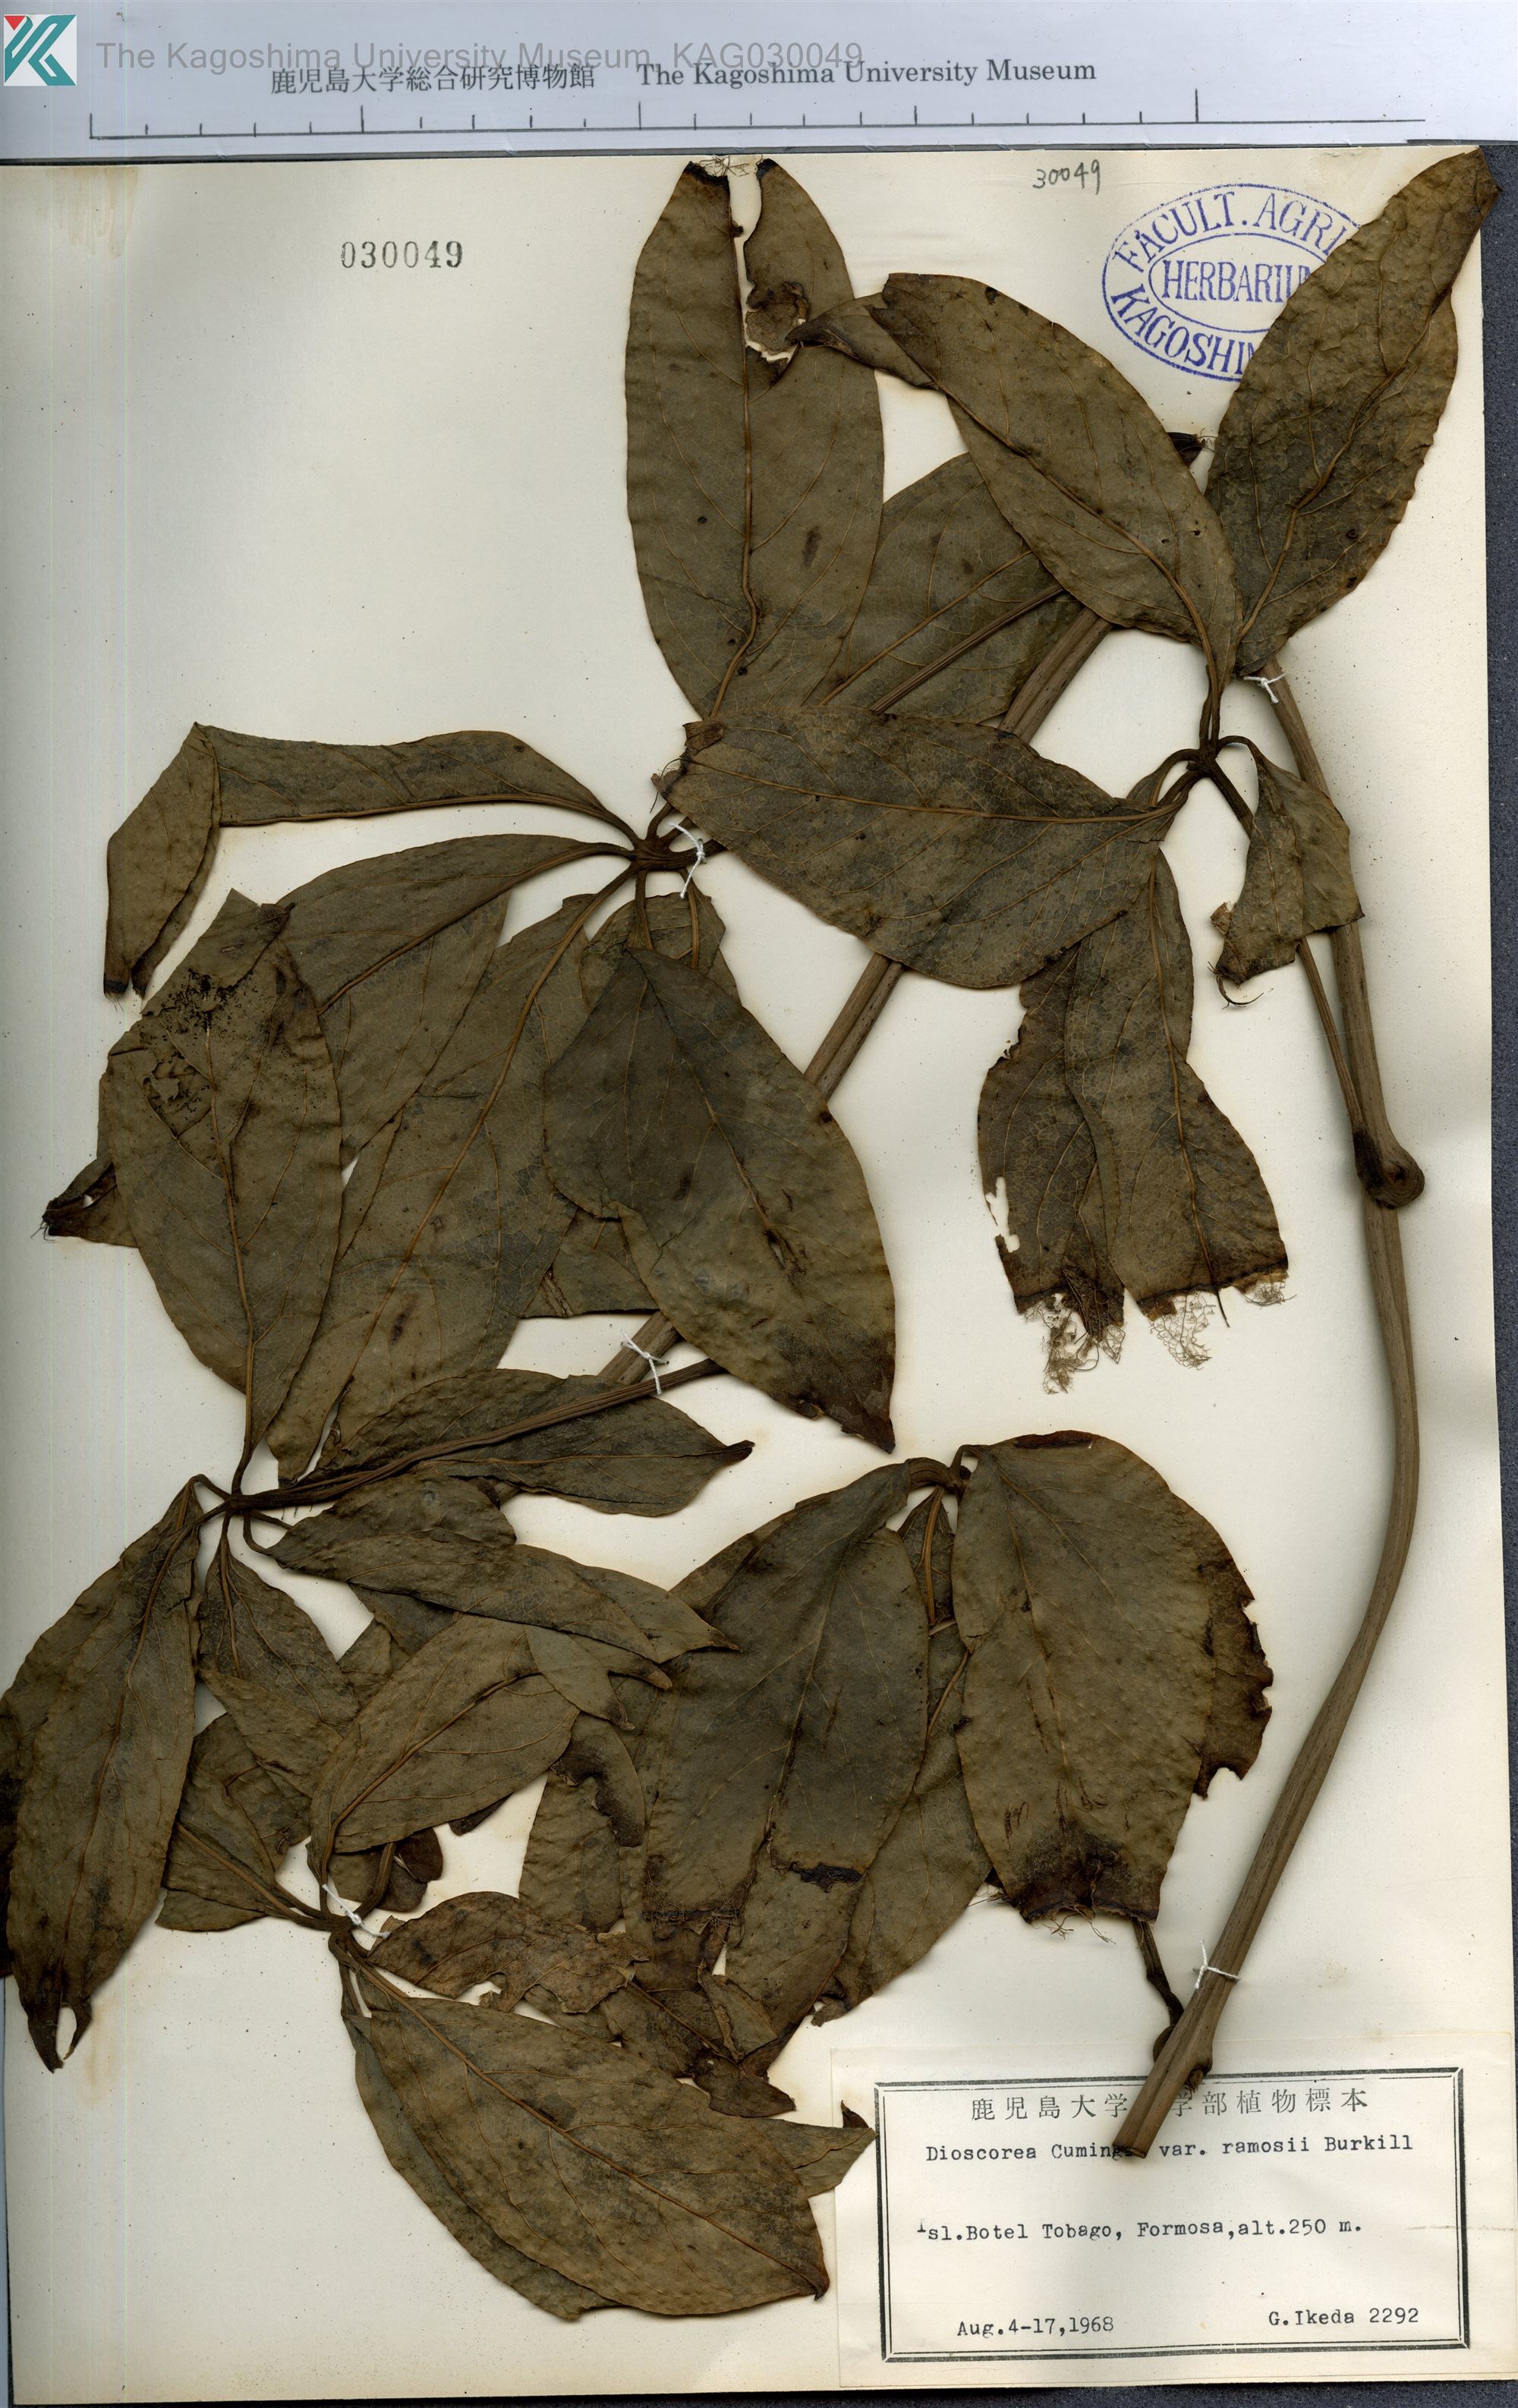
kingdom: Plantae
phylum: Tracheophyta
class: Liliopsida
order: Dioscoreales
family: Dioscoreaceae
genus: Dioscorea
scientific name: Dioscorea cumingii
